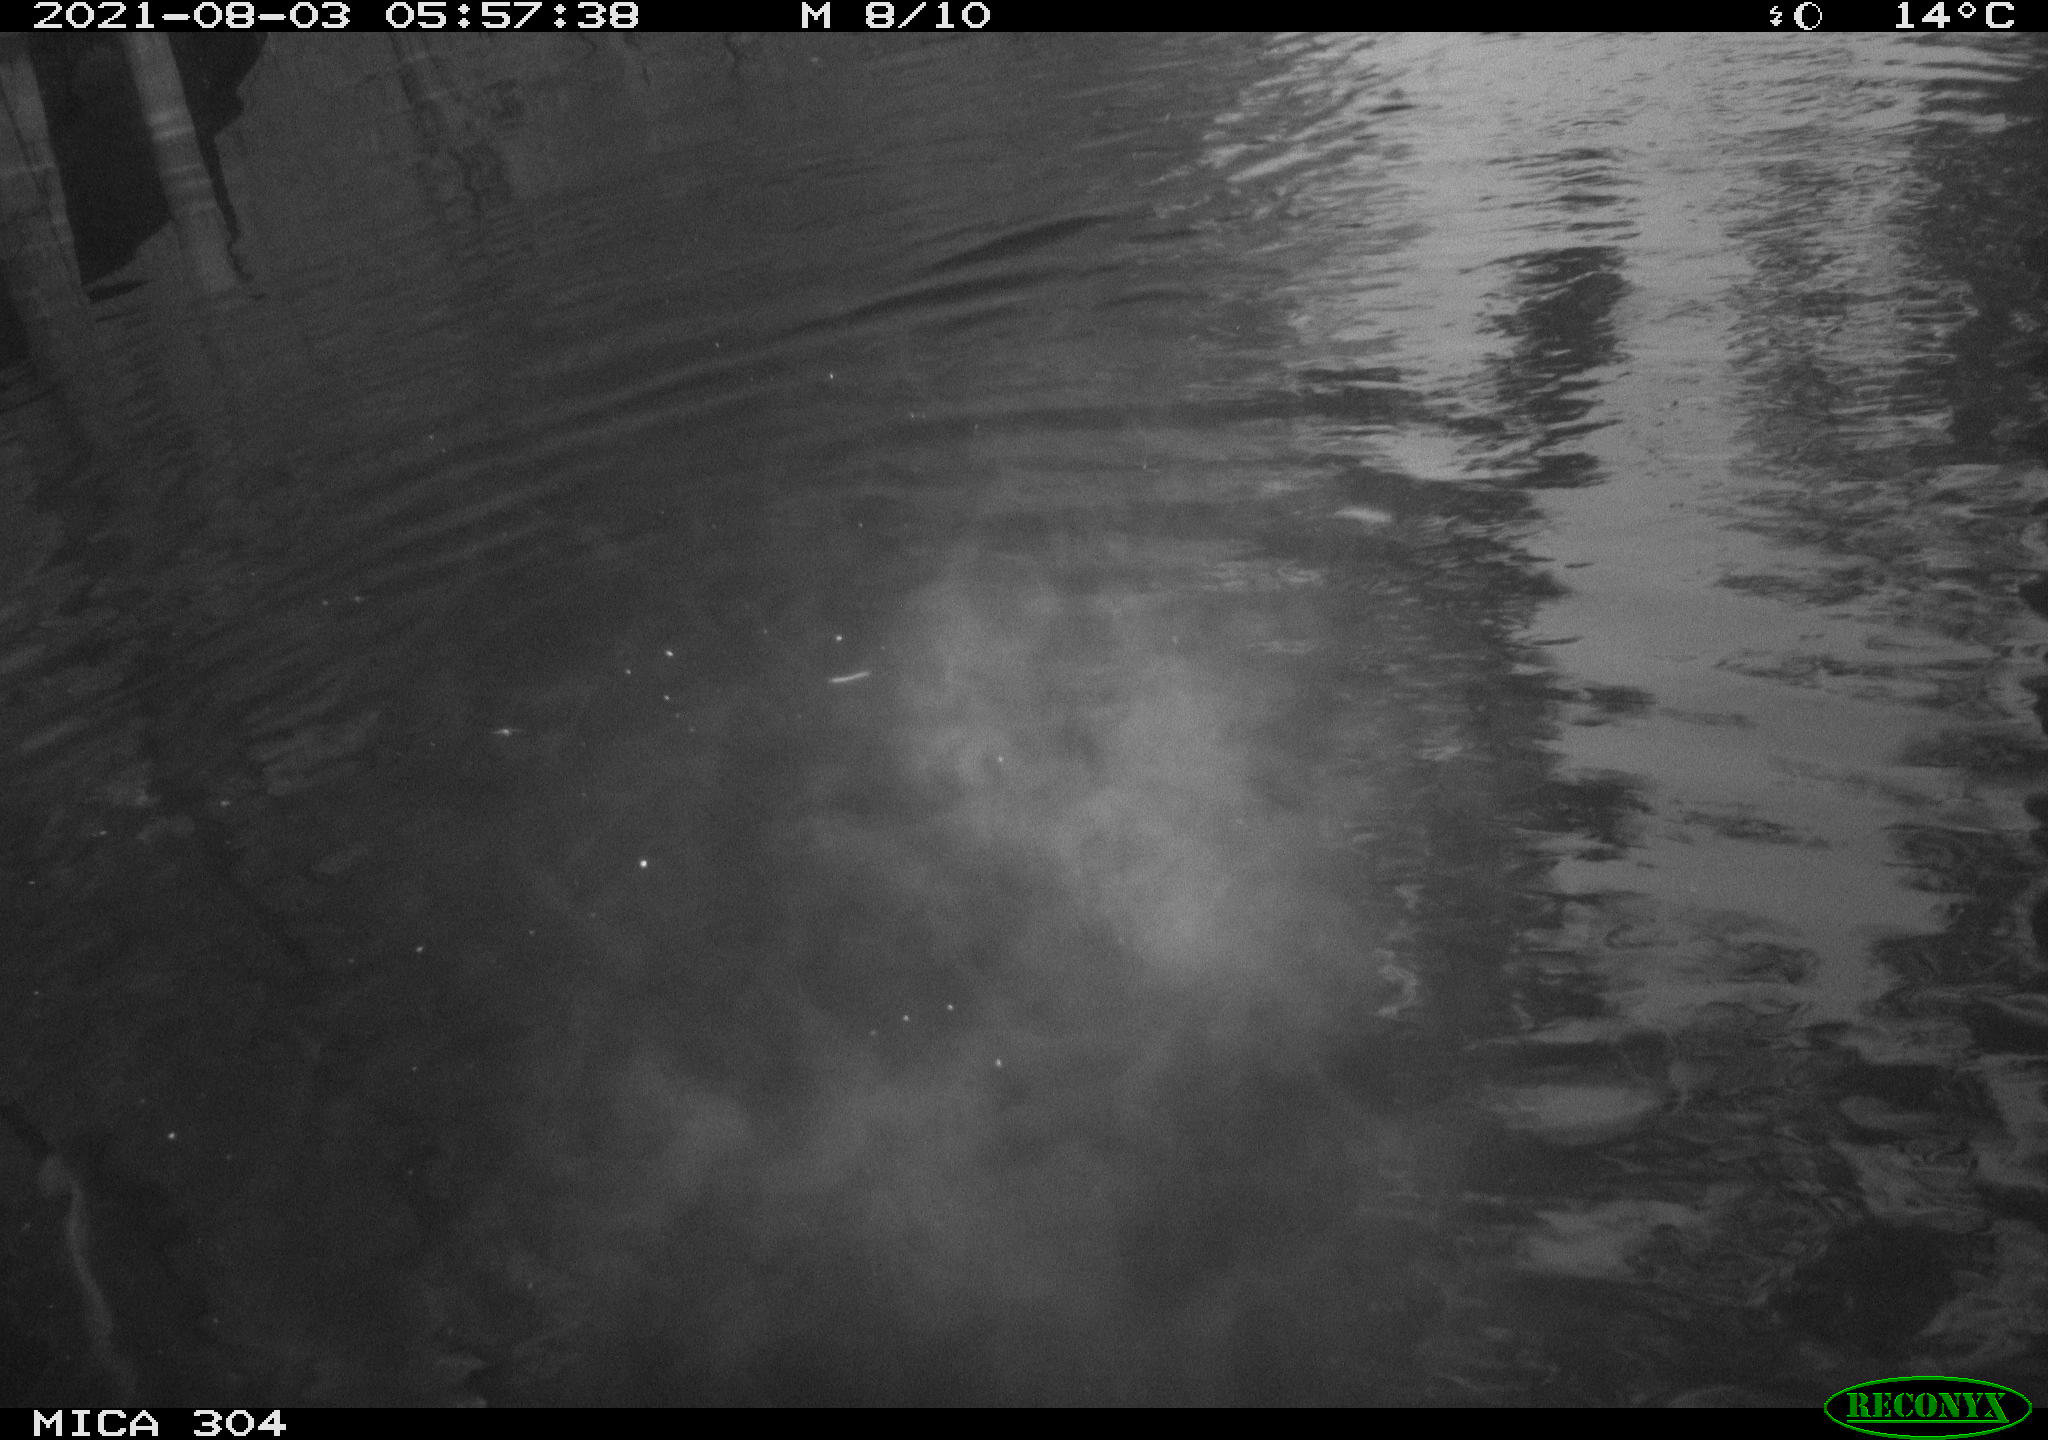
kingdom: Animalia
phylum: Chordata
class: Aves
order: Anseriformes
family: Anatidae
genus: Anas
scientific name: Anas platyrhynchos
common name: Mallard
